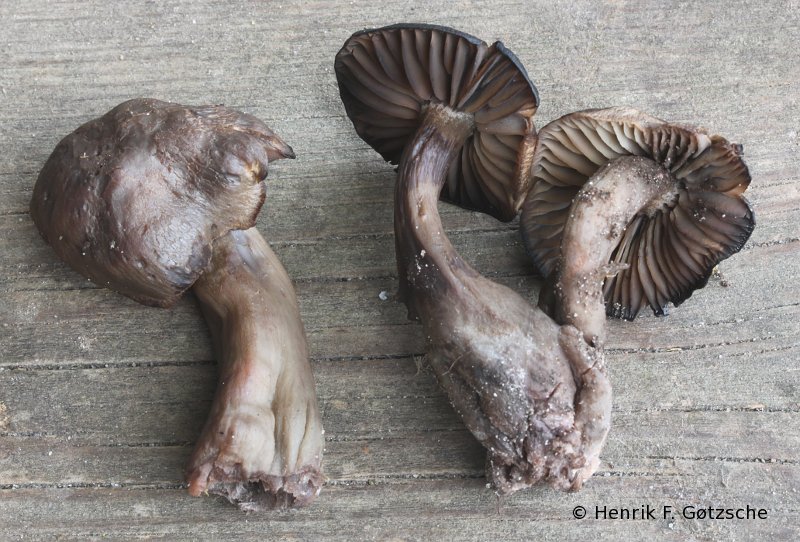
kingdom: Fungi
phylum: Basidiomycota
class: Agaricomycetes
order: Agaricales
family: Hygrophoraceae
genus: Neohygrocybe
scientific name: Neohygrocybe ovina
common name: rødmende vokshat
